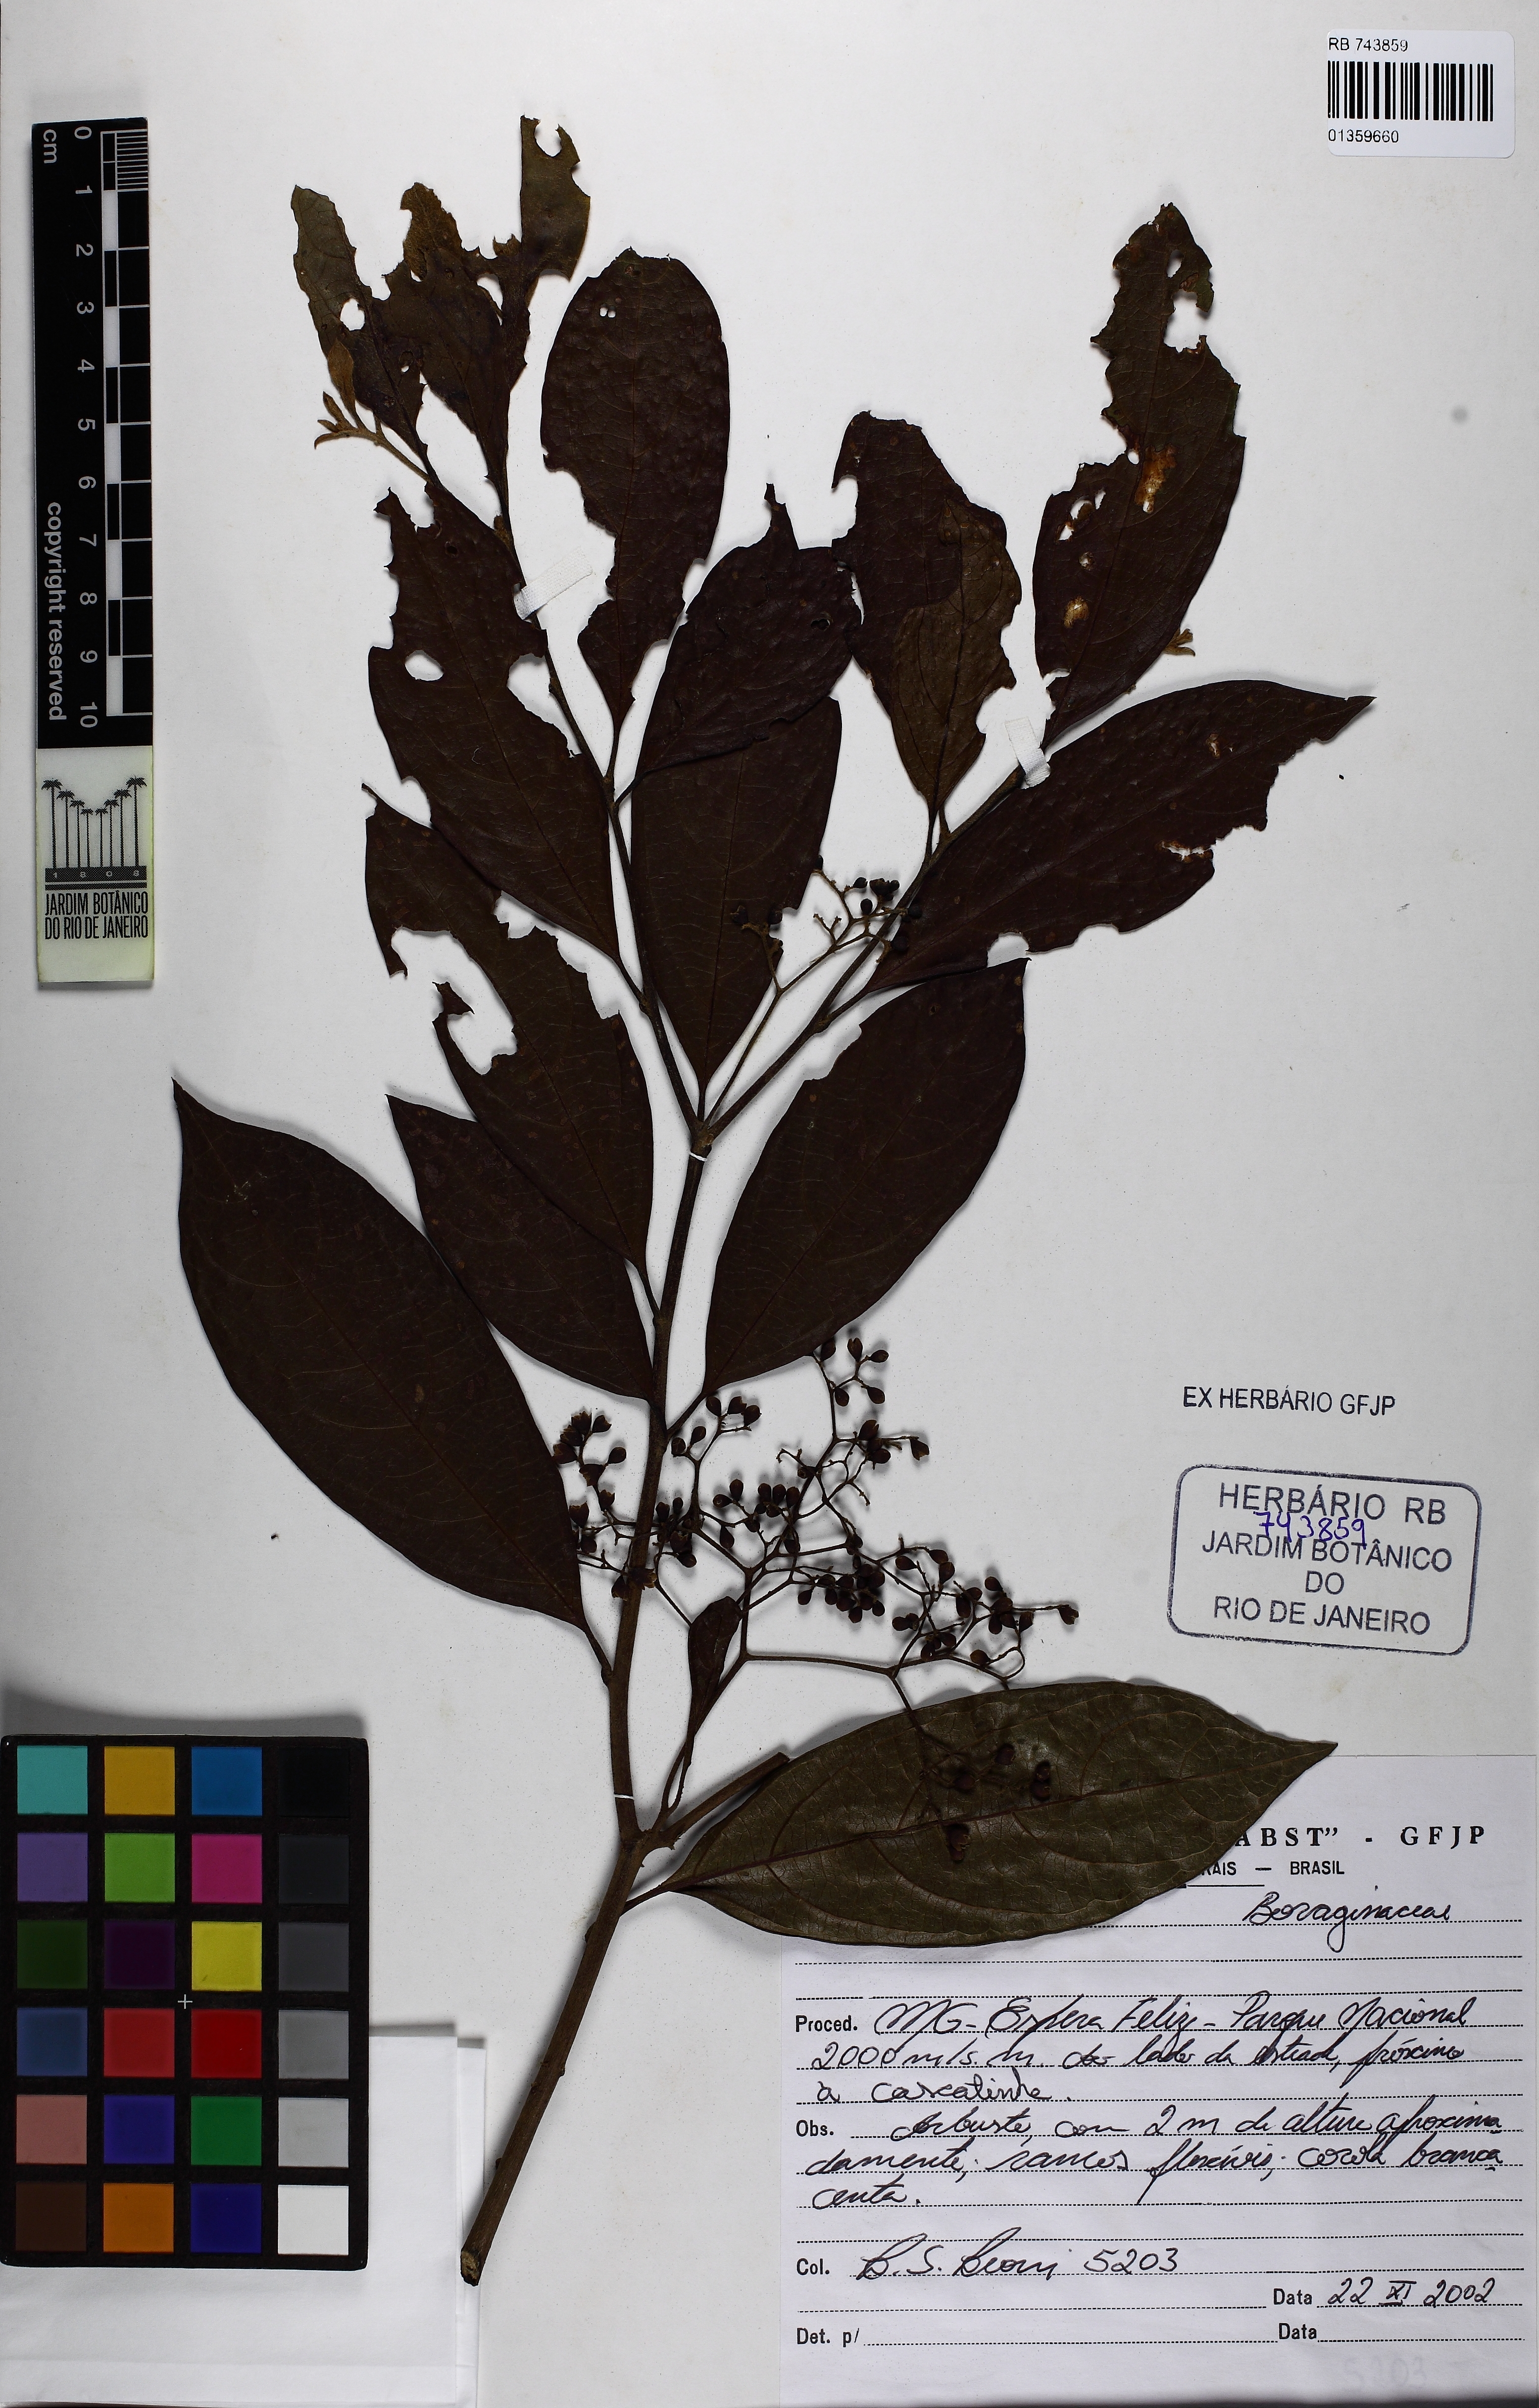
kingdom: Plantae
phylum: Tracheophyta
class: Magnoliopsida
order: Boraginales
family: Cordiaceae
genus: Cordia
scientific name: Cordia
